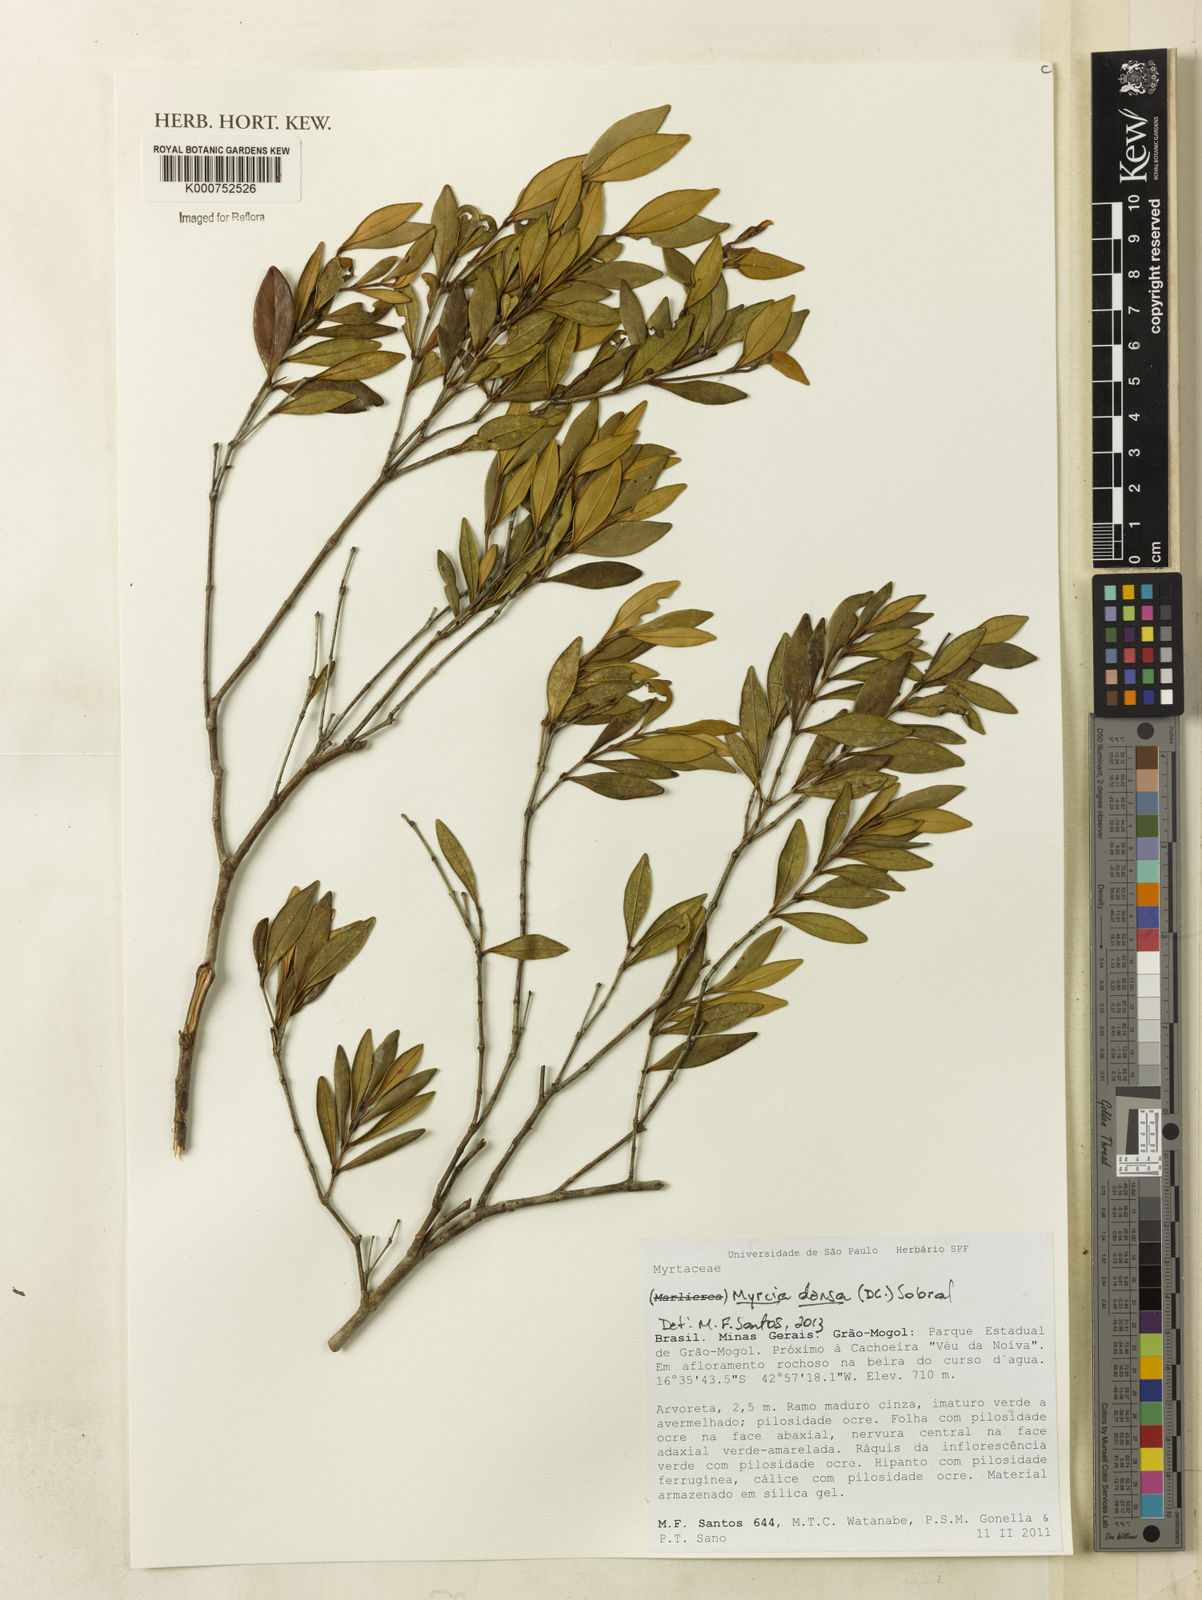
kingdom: Plantae
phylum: Tracheophyta
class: Magnoliopsida
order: Myrtales
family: Myrtaceae
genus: Myrcia
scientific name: Myrcia densa
